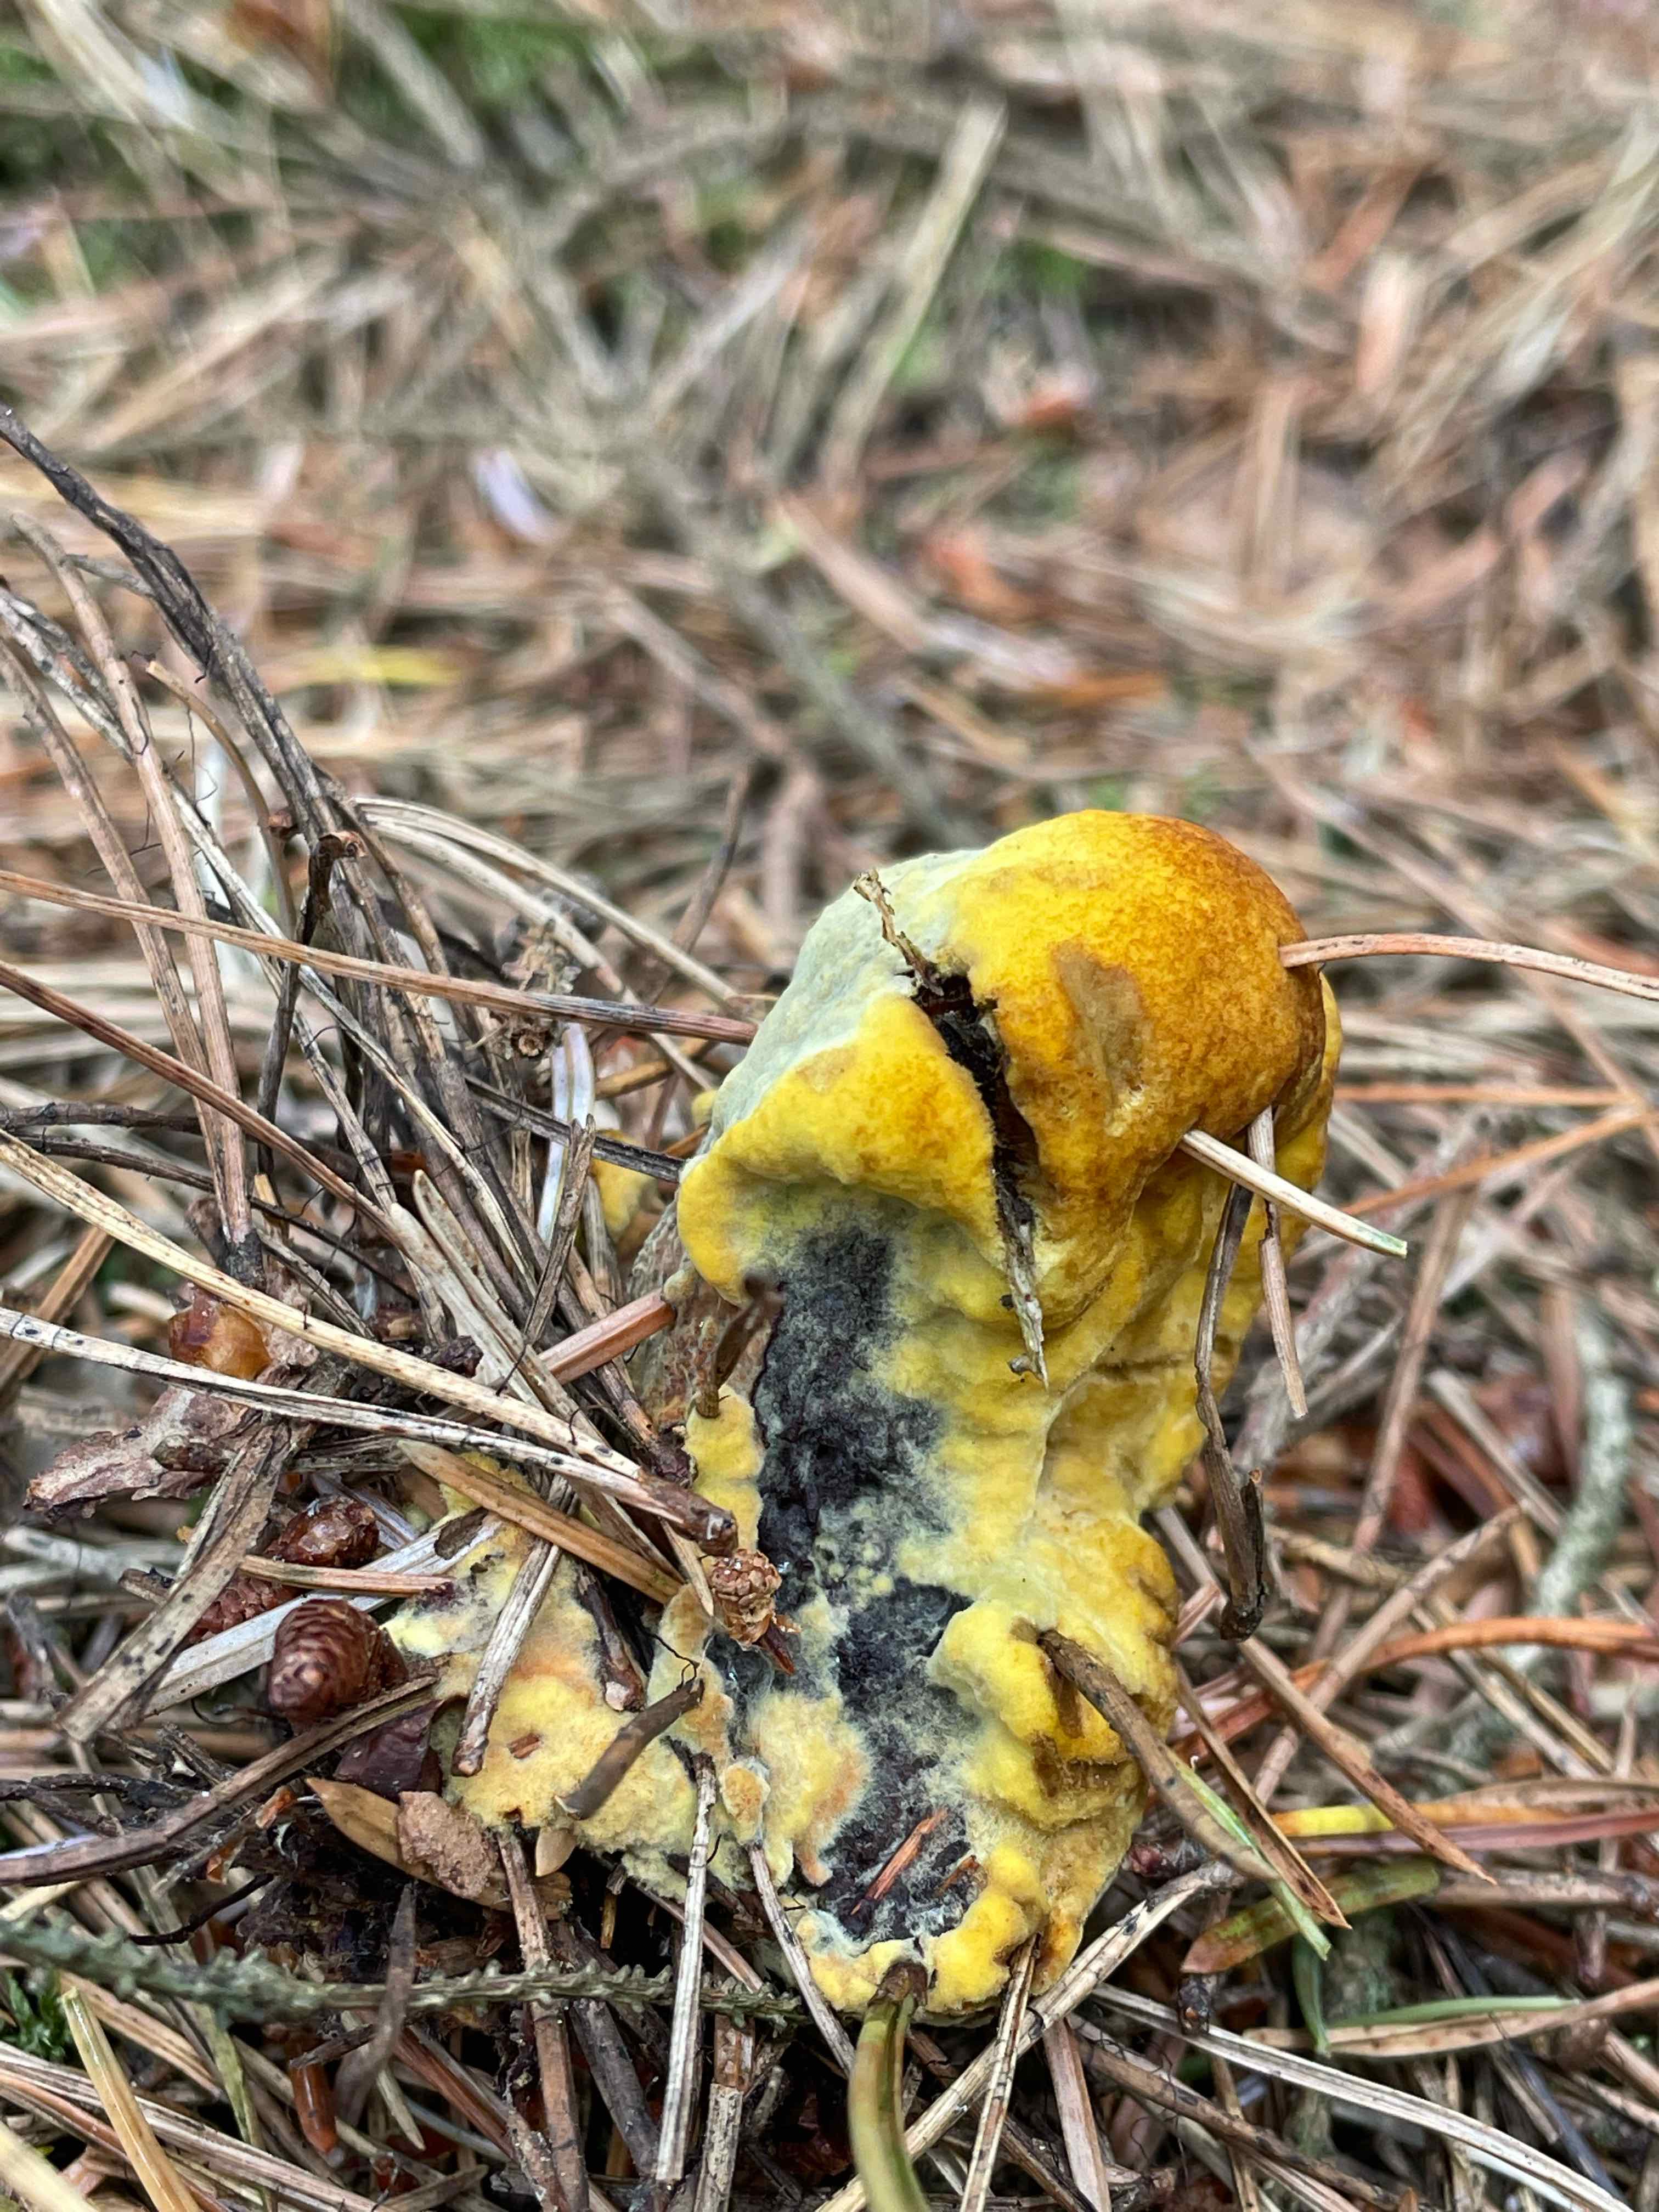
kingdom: Fungi
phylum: Basidiomycota
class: Agaricomycetes
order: Polyporales
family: Laetiporaceae
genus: Phaeolus
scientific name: Phaeolus schweinitzii
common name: brunporesvamp
